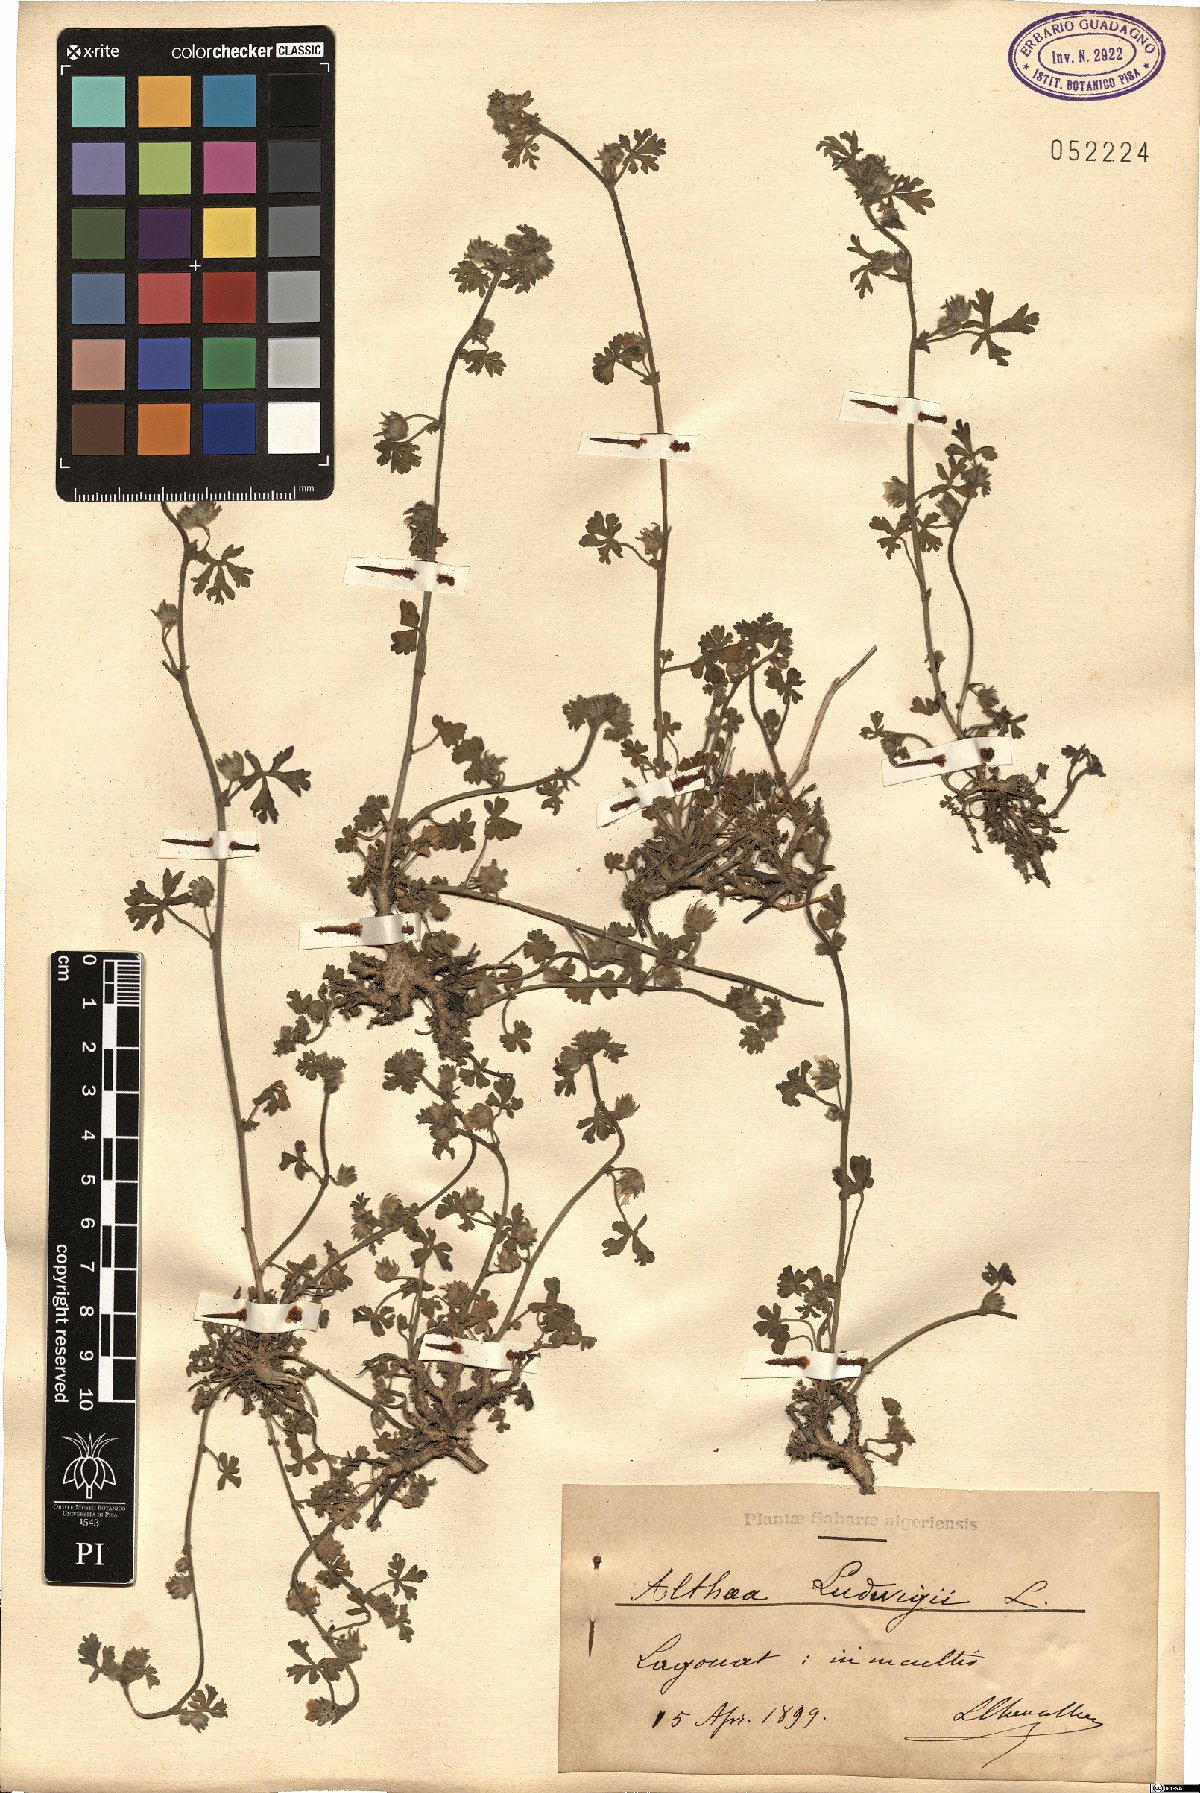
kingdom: Plantae
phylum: Tracheophyta
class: Magnoliopsida
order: Malvales
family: Malvaceae
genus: Malva
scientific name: Malva ludwigii
